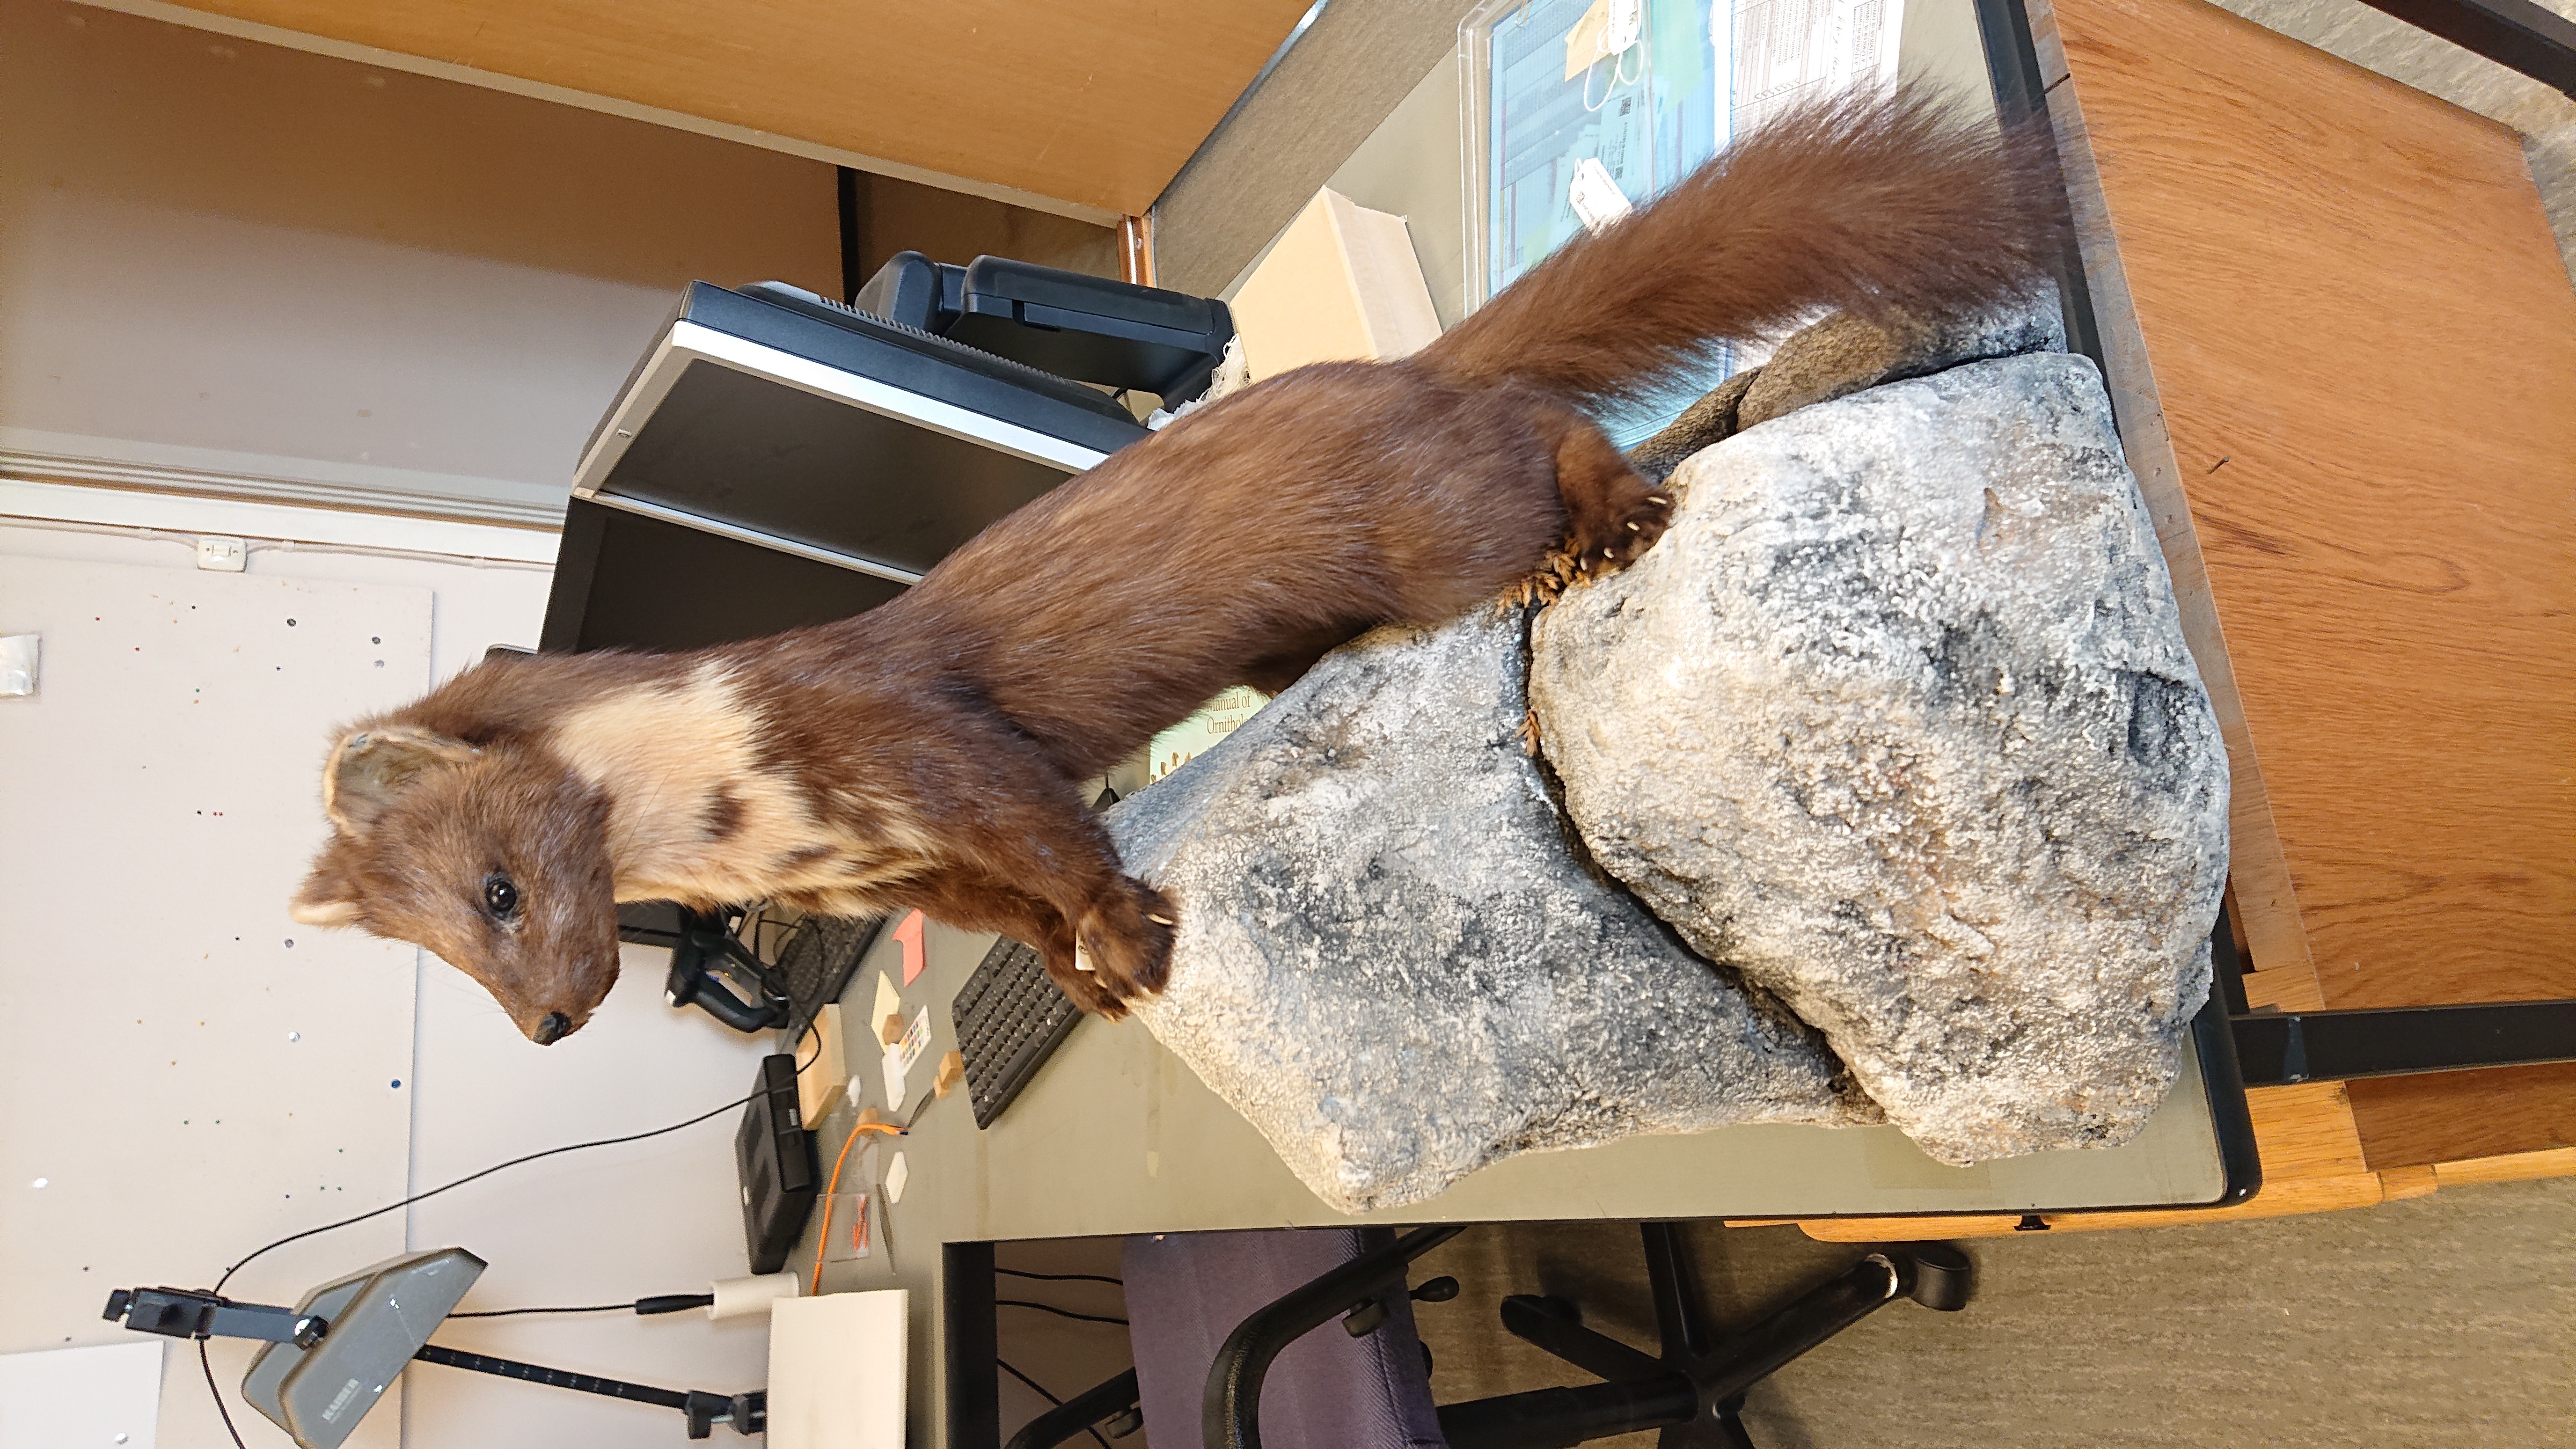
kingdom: Animalia
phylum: Chordata
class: Mammalia
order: Carnivora
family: Mustelidae
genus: Martes
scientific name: Martes martes
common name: European pine marten
